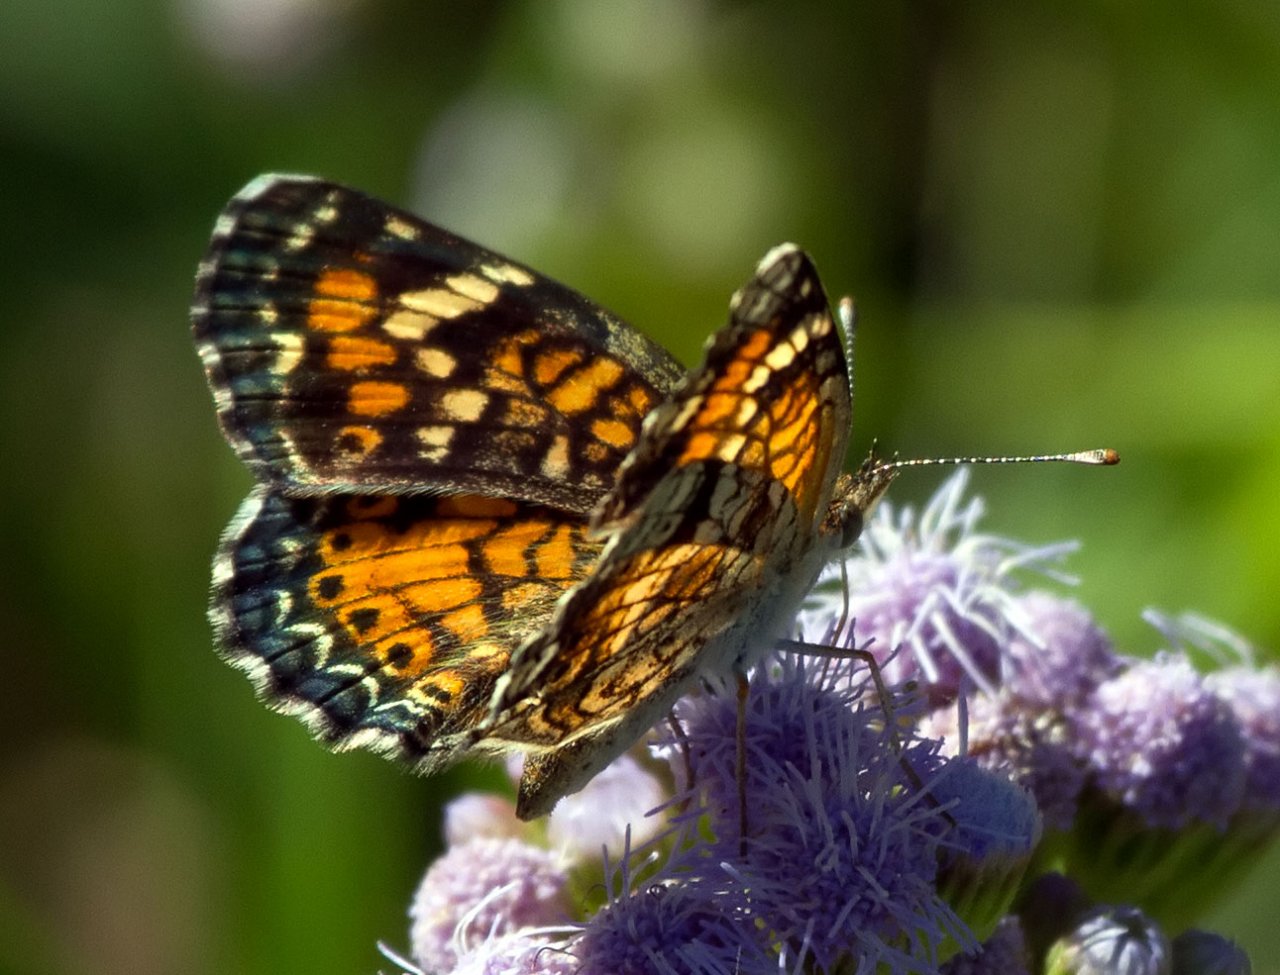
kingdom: Animalia
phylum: Arthropoda
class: Insecta
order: Lepidoptera
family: Nymphalidae
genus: Phyciodes
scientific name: Phyciodes phaon
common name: Phaon Crescent
